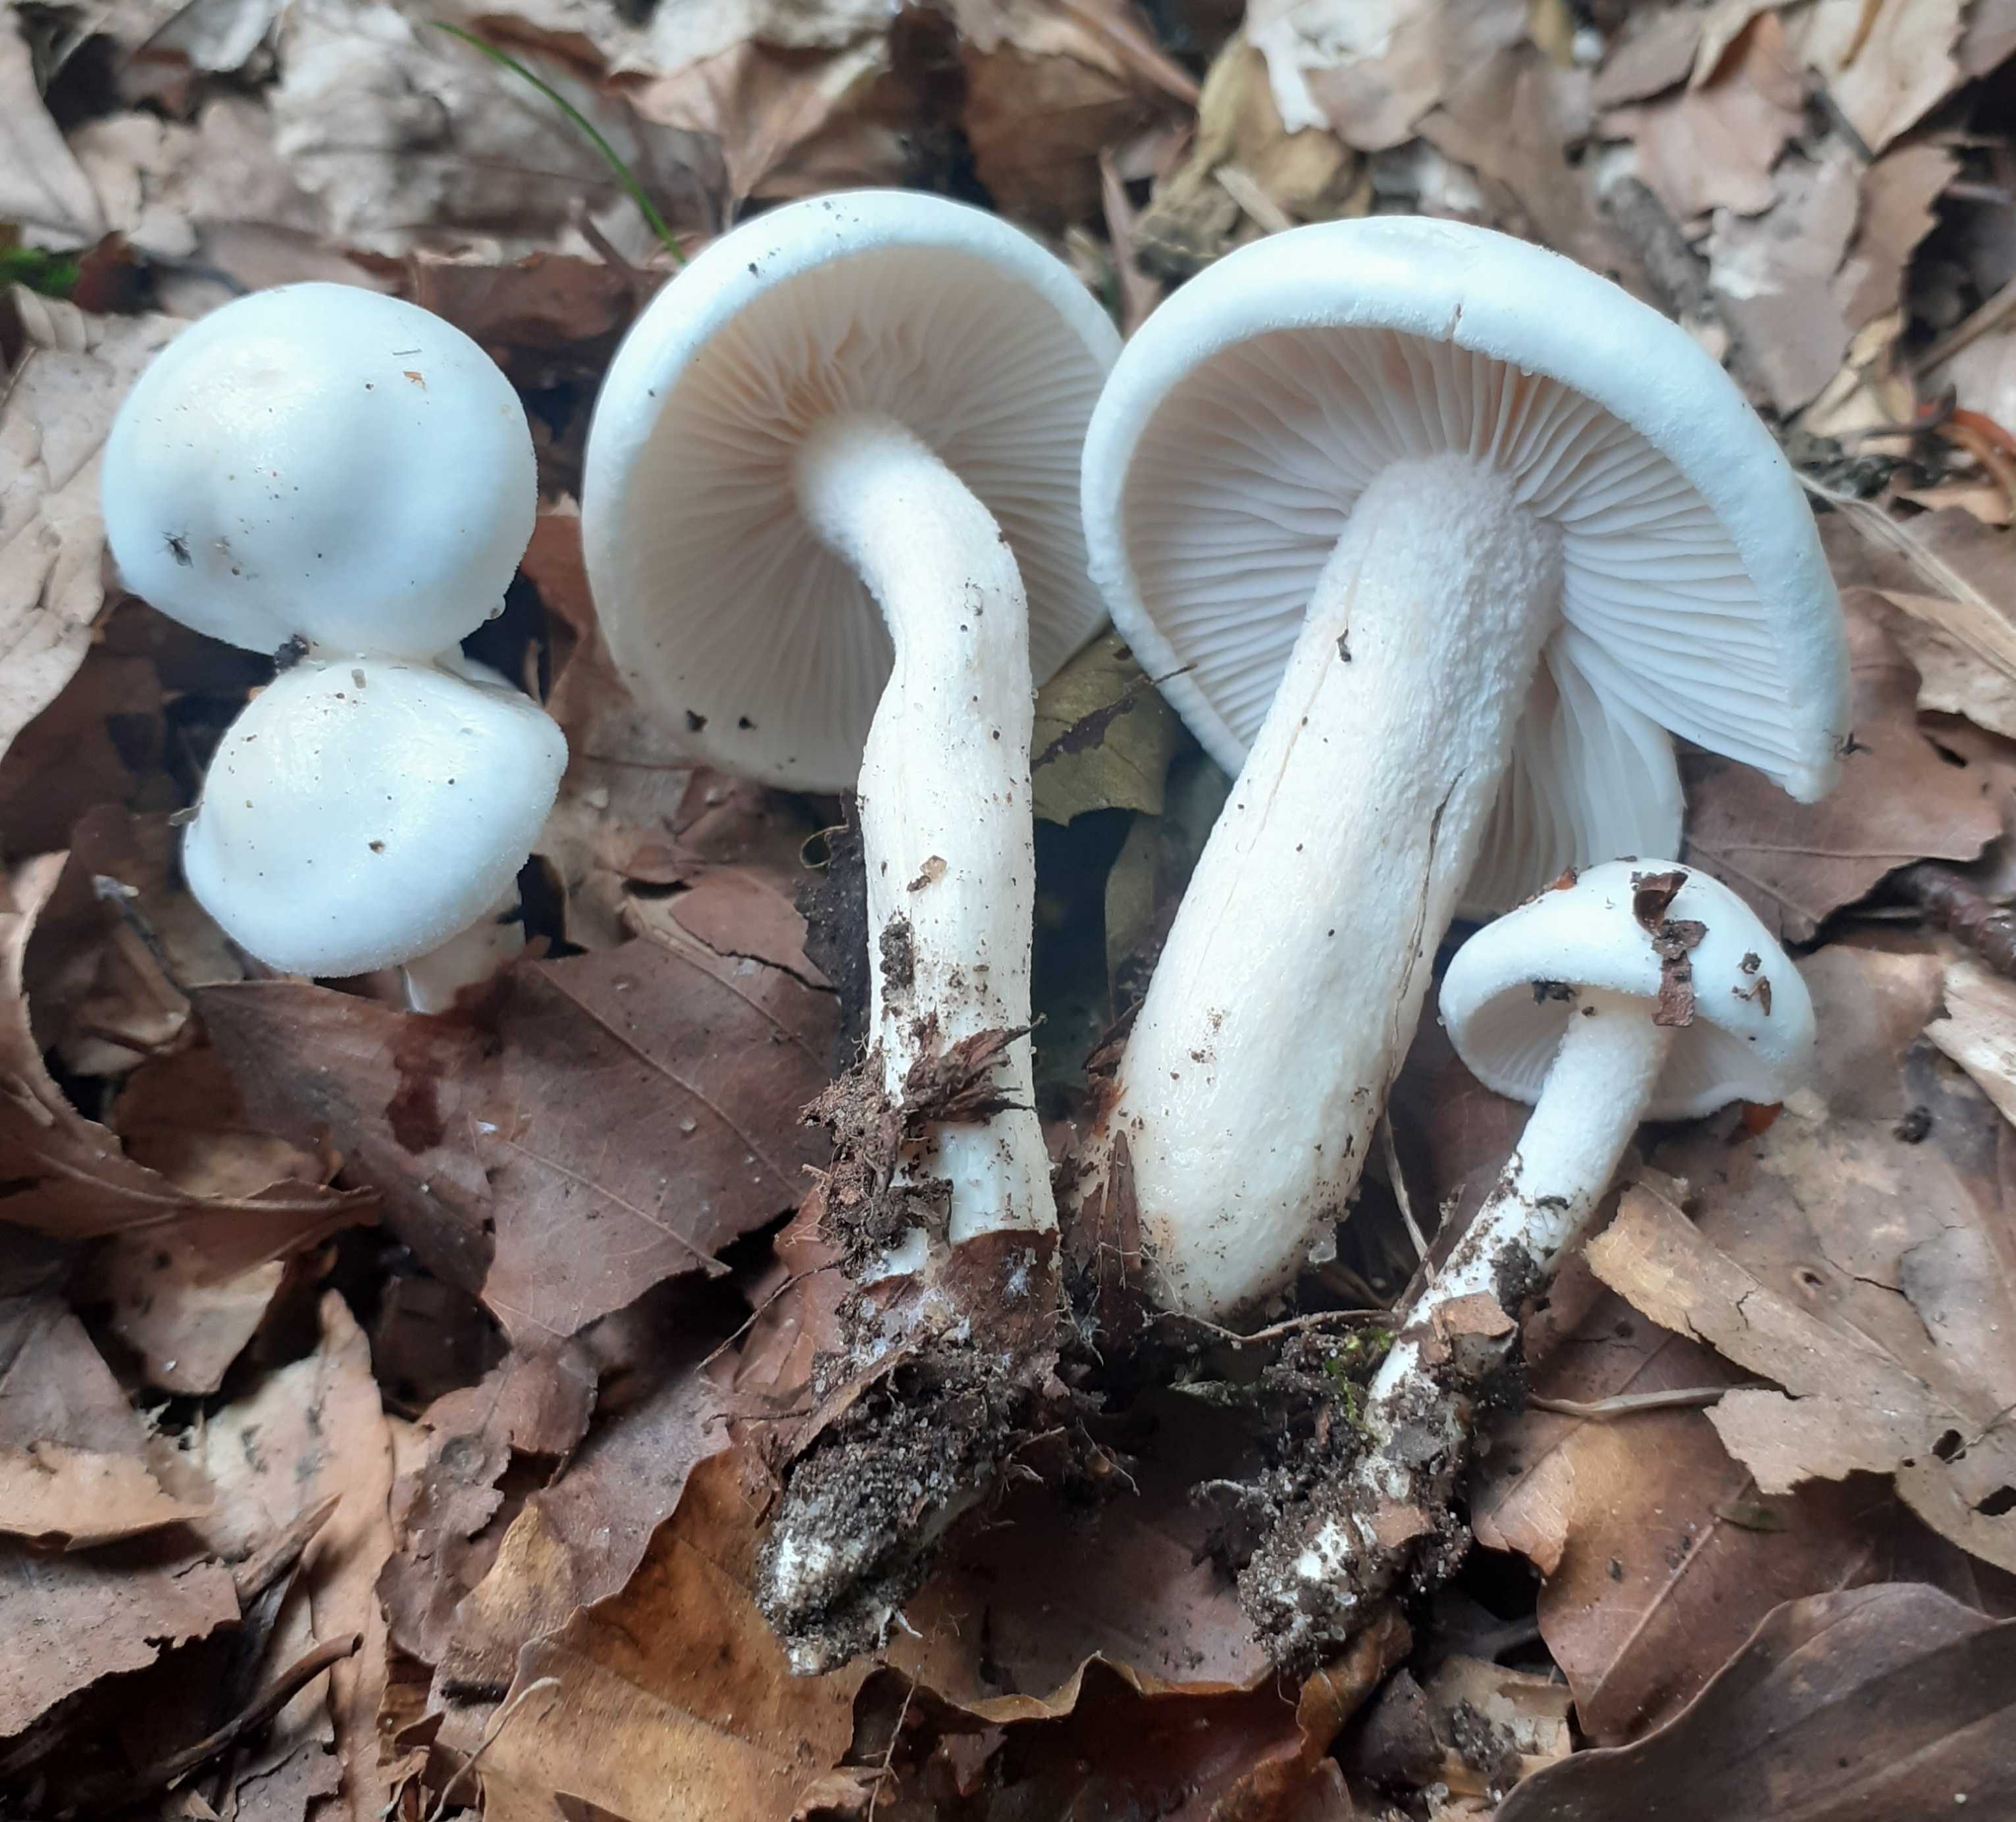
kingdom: Fungi
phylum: Basidiomycota
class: Agaricomycetes
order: Agaricales
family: Tricholomataceae
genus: Leucocybe
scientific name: Leucocybe connata
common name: knippe-tragthat
